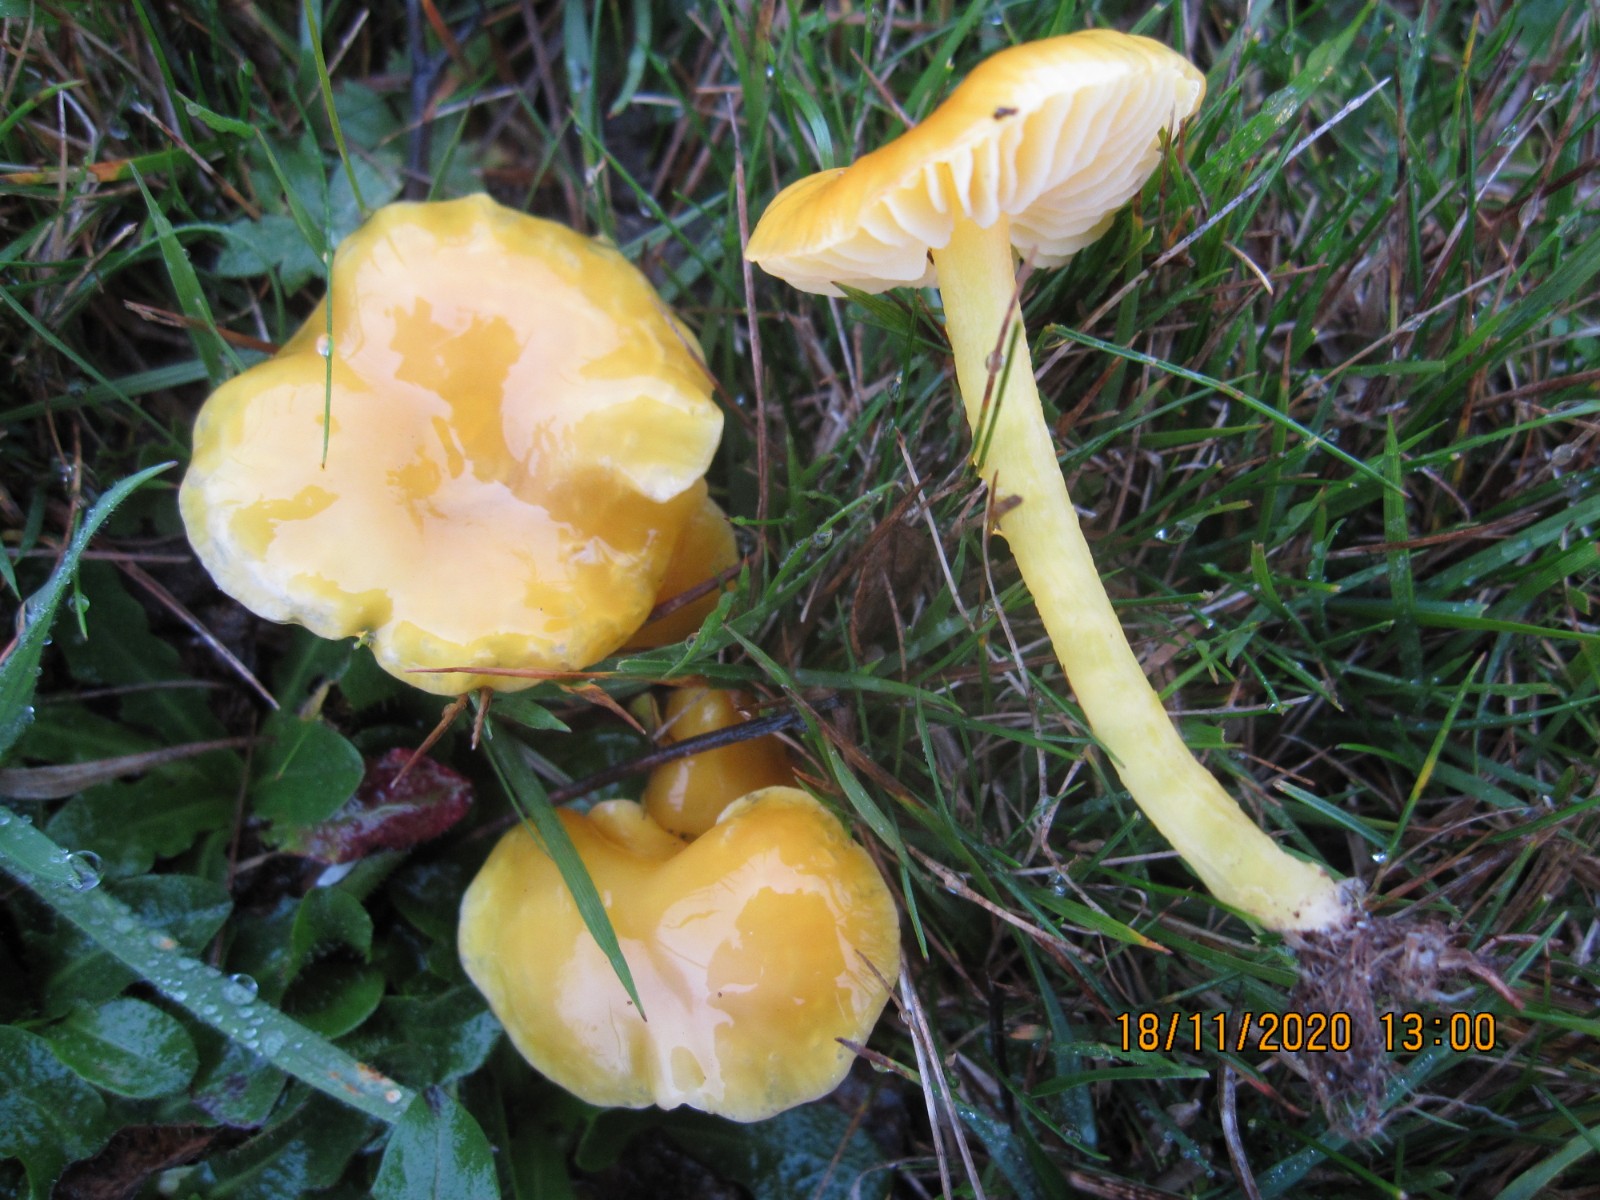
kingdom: Fungi
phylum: Basidiomycota
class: Agaricomycetes
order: Agaricales
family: Hygrophoraceae
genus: Hygrocybe
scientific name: Hygrocybe chlorophana
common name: gul vokshat
